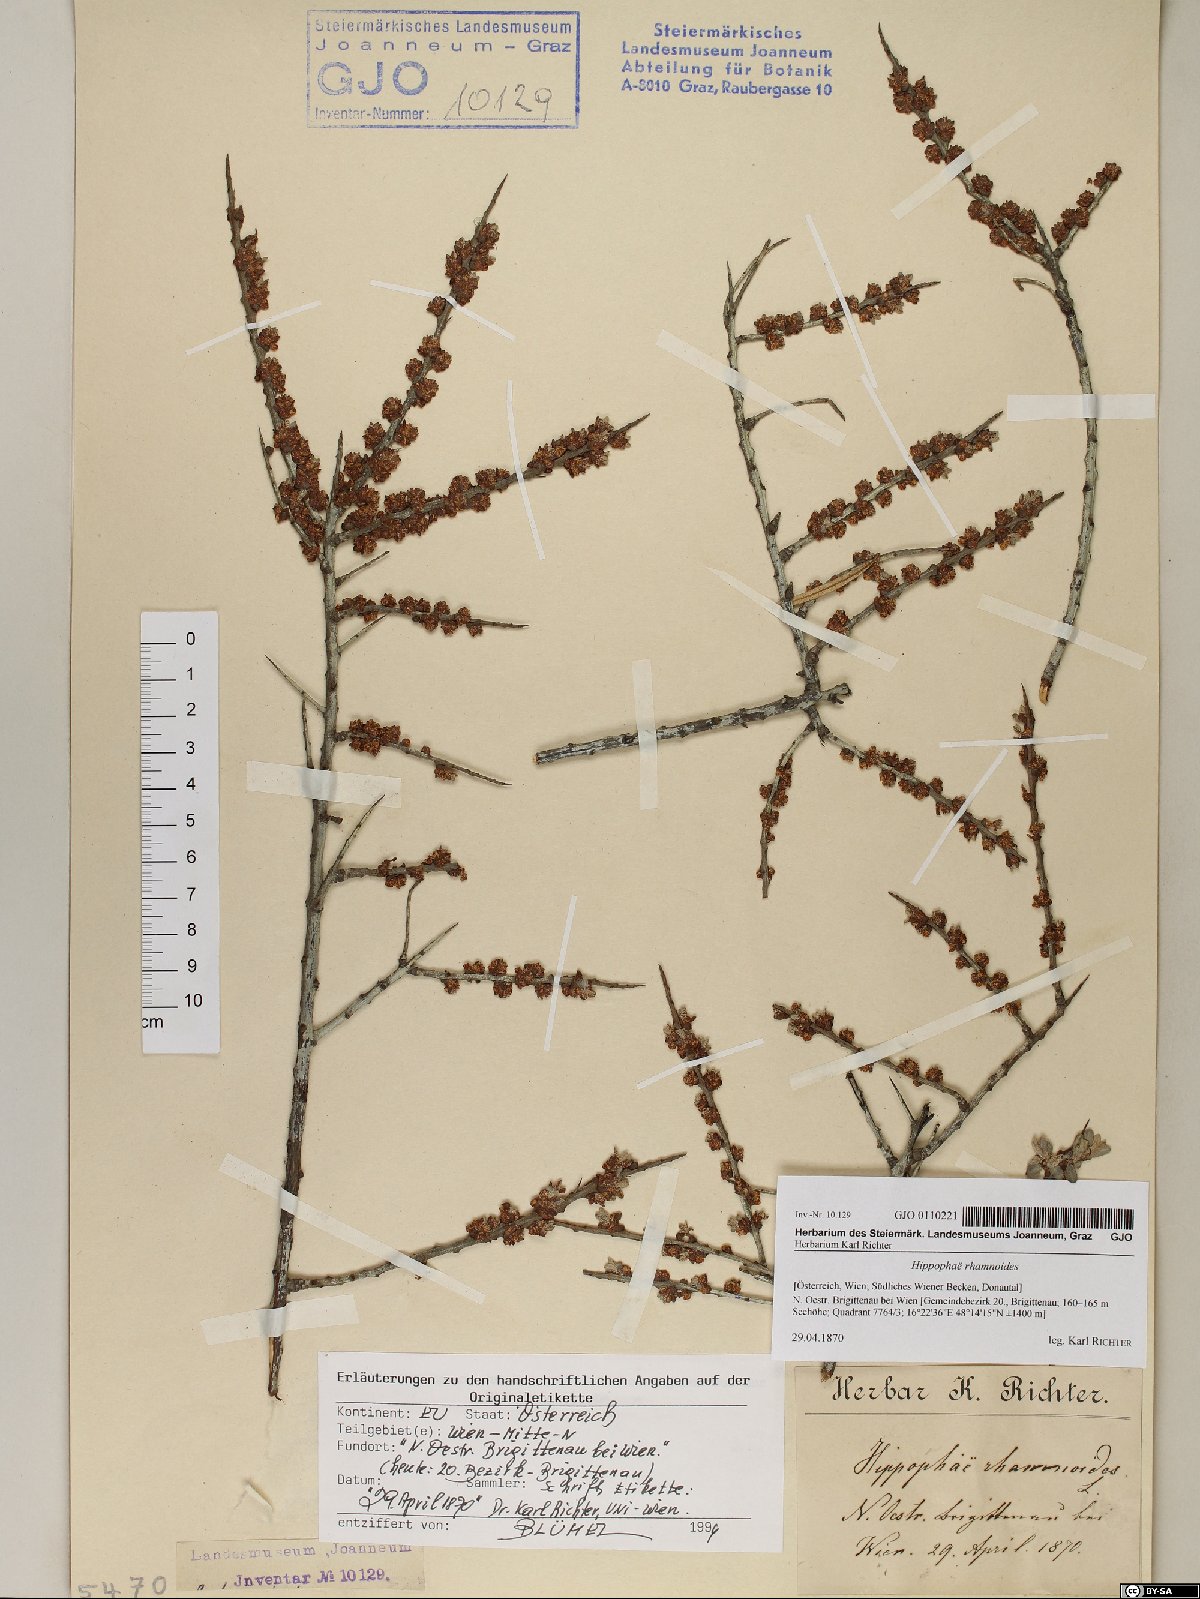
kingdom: Plantae
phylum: Tracheophyta
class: Magnoliopsida
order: Rosales
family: Elaeagnaceae
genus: Hippophae
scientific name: Hippophae rhamnoides
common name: Sea-buckthorn
